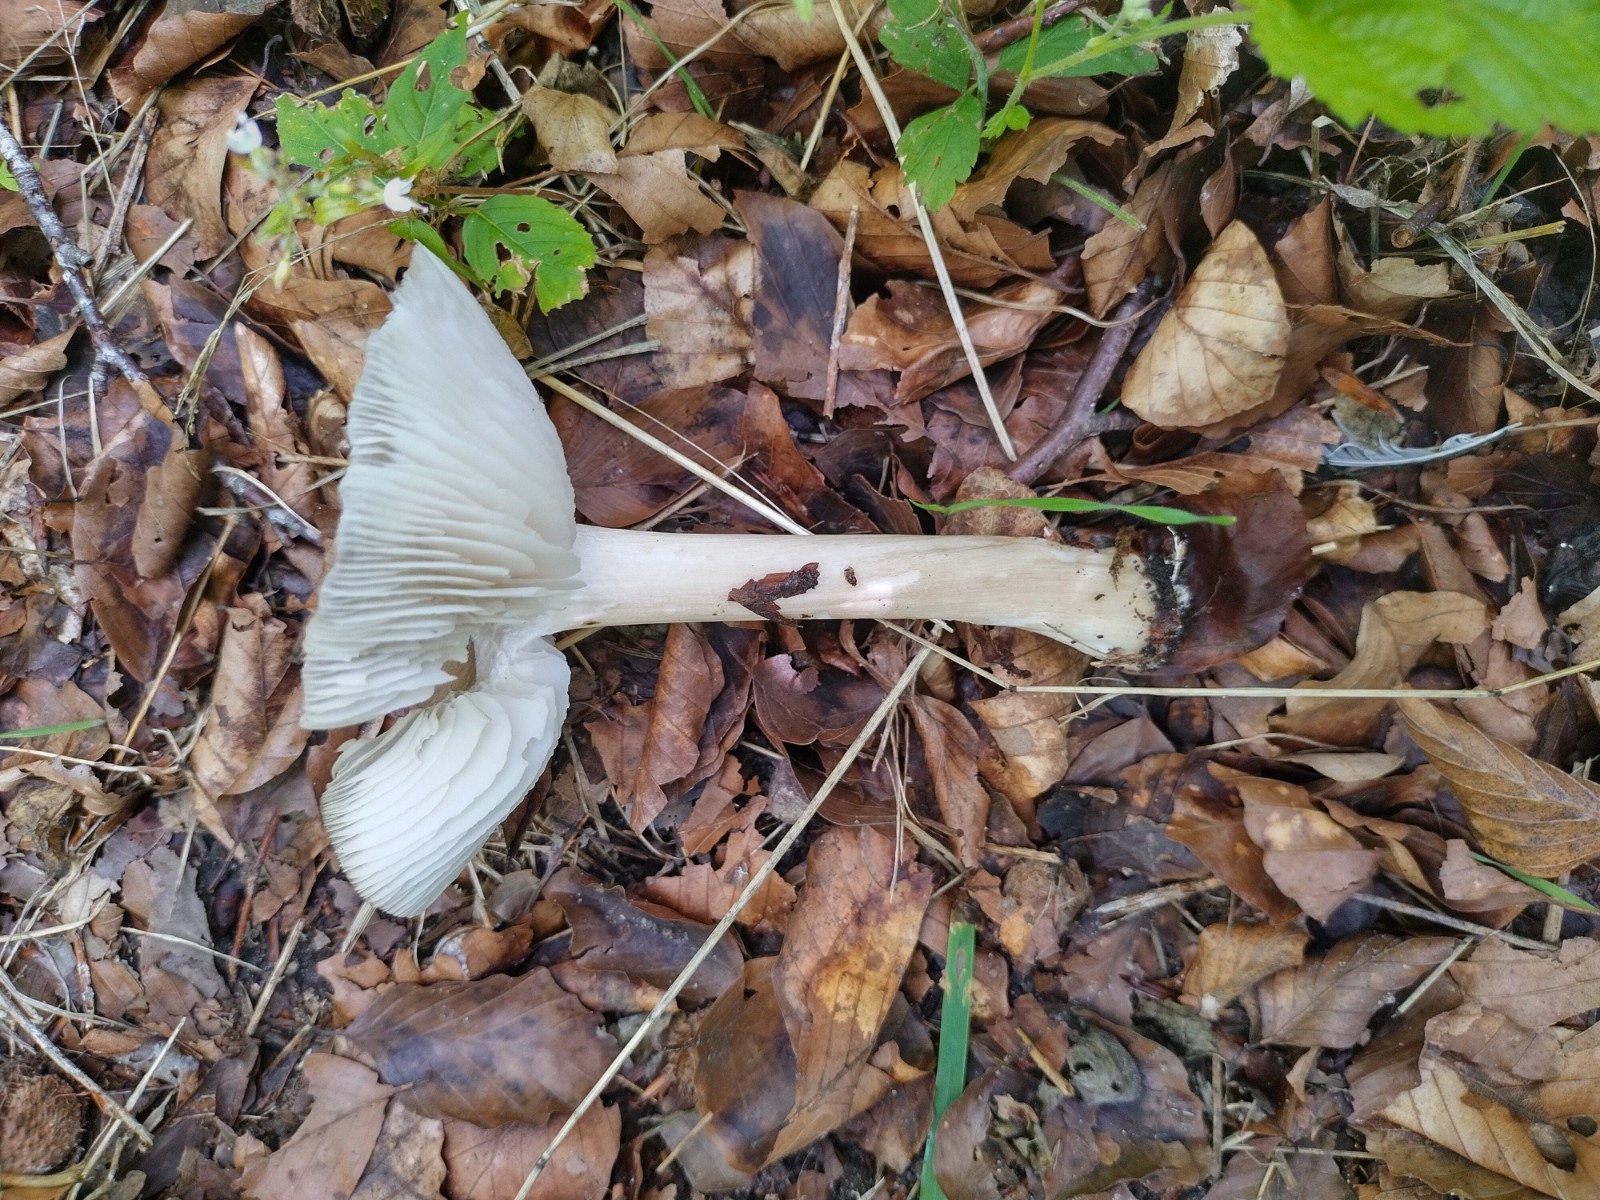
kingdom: Fungi
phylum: Basidiomycota
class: Agaricomycetes
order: Agaricales
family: Tricholomataceae
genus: Megacollybia
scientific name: Megacollybia platyphylla
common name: bredbladet væbnerhat
